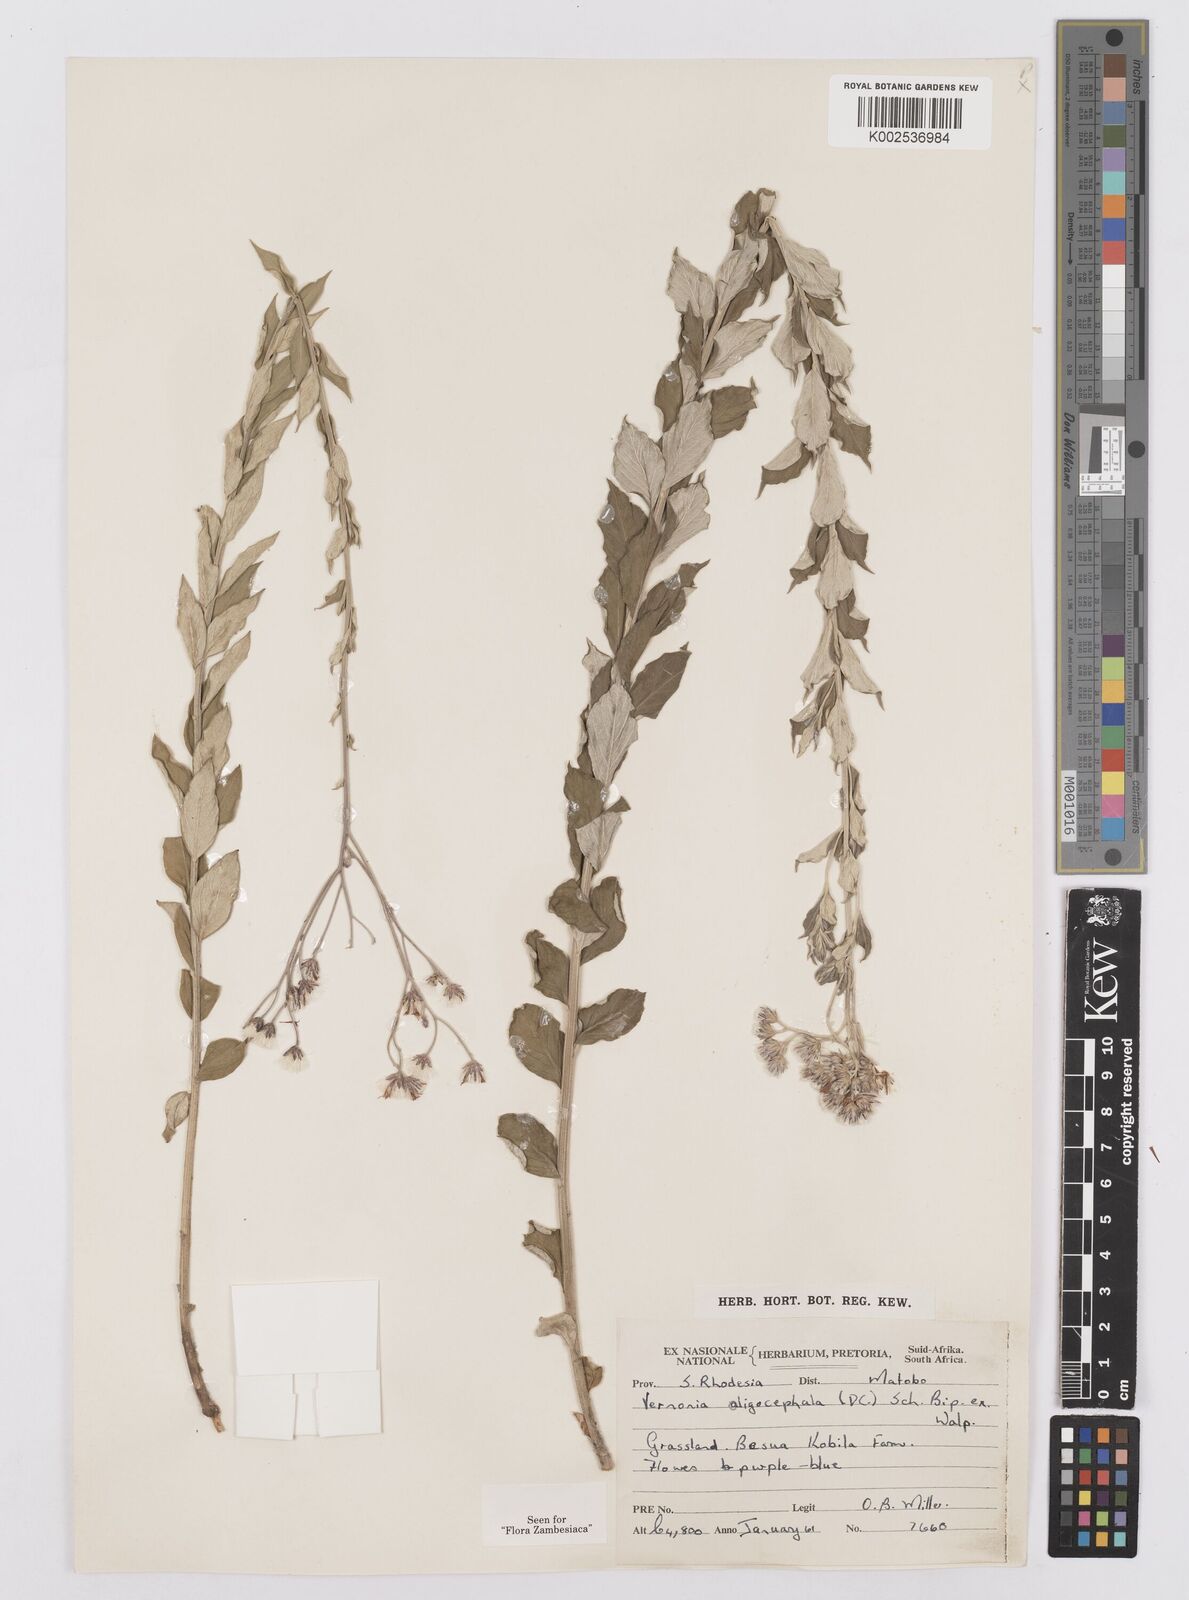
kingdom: Plantae
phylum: Tracheophyta
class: Magnoliopsida
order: Asterales
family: Asteraceae
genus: Hilliardiella
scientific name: Hilliardiella oligocephala
